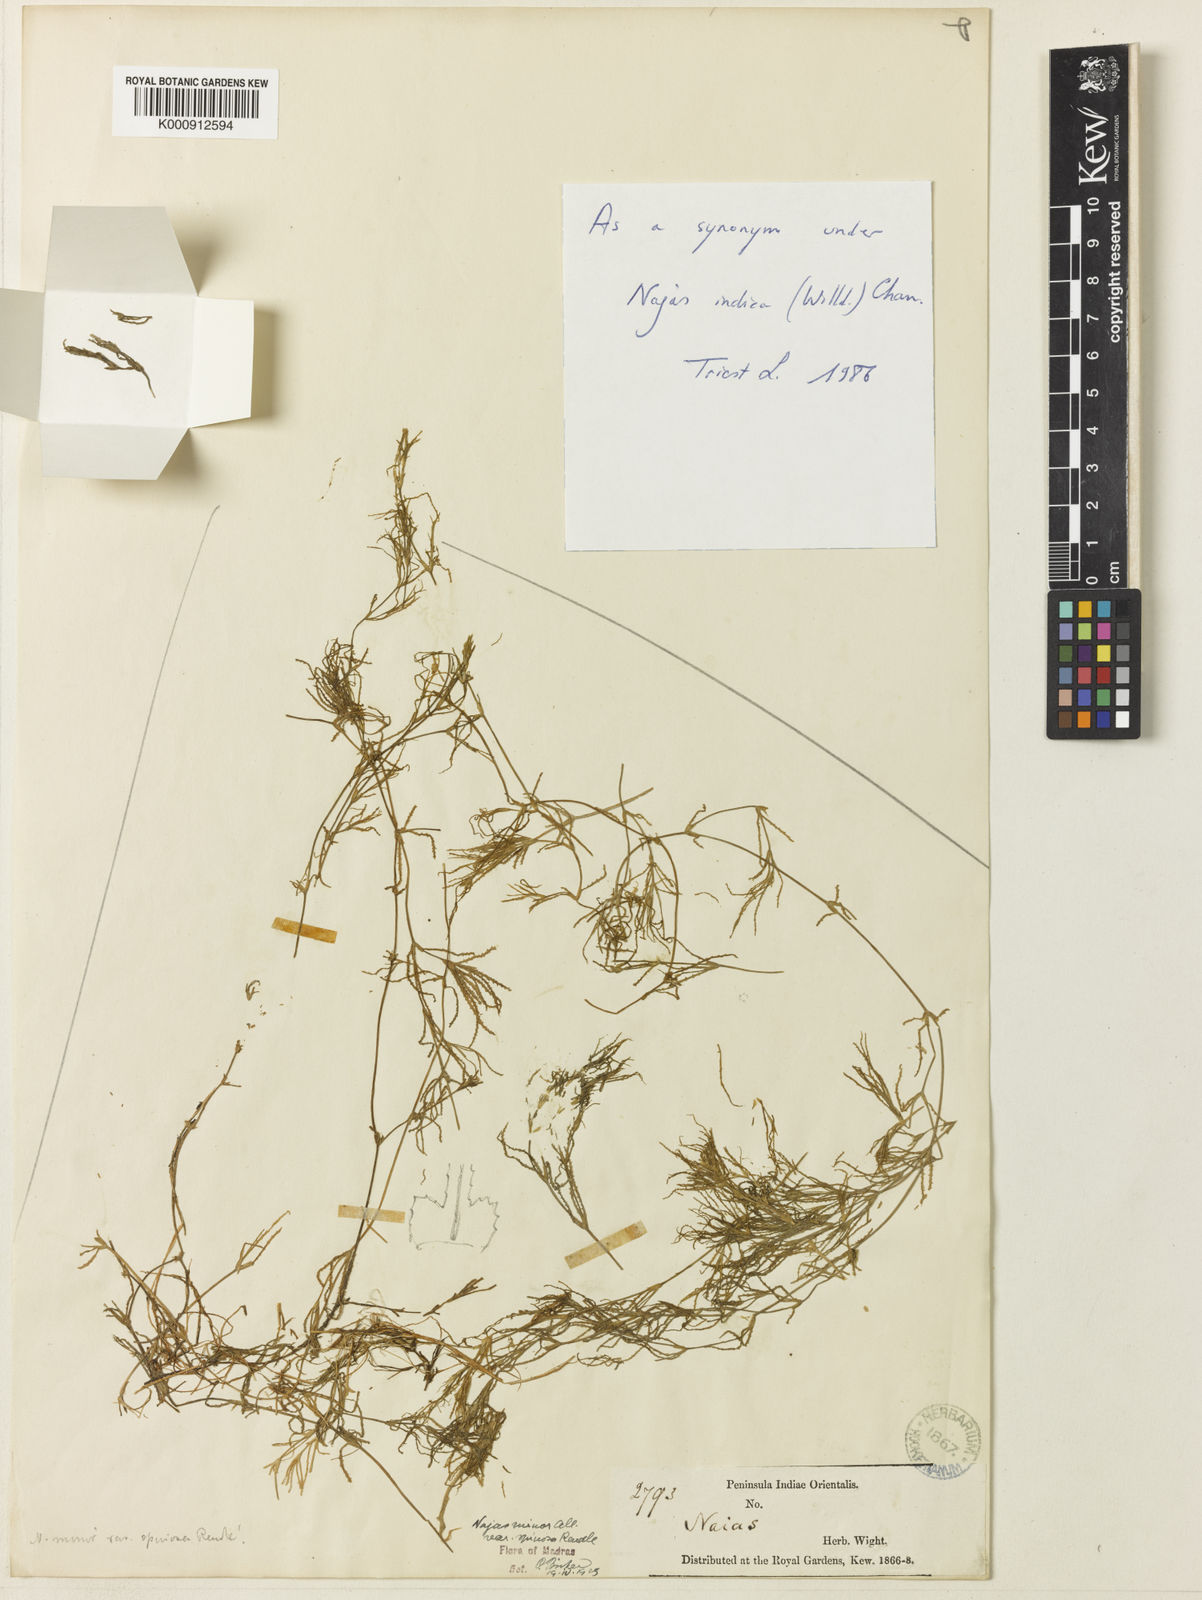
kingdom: Plantae
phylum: Tracheophyta
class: Liliopsida
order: Alismatales
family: Hydrocharitaceae
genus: Najas
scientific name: Najas indica
